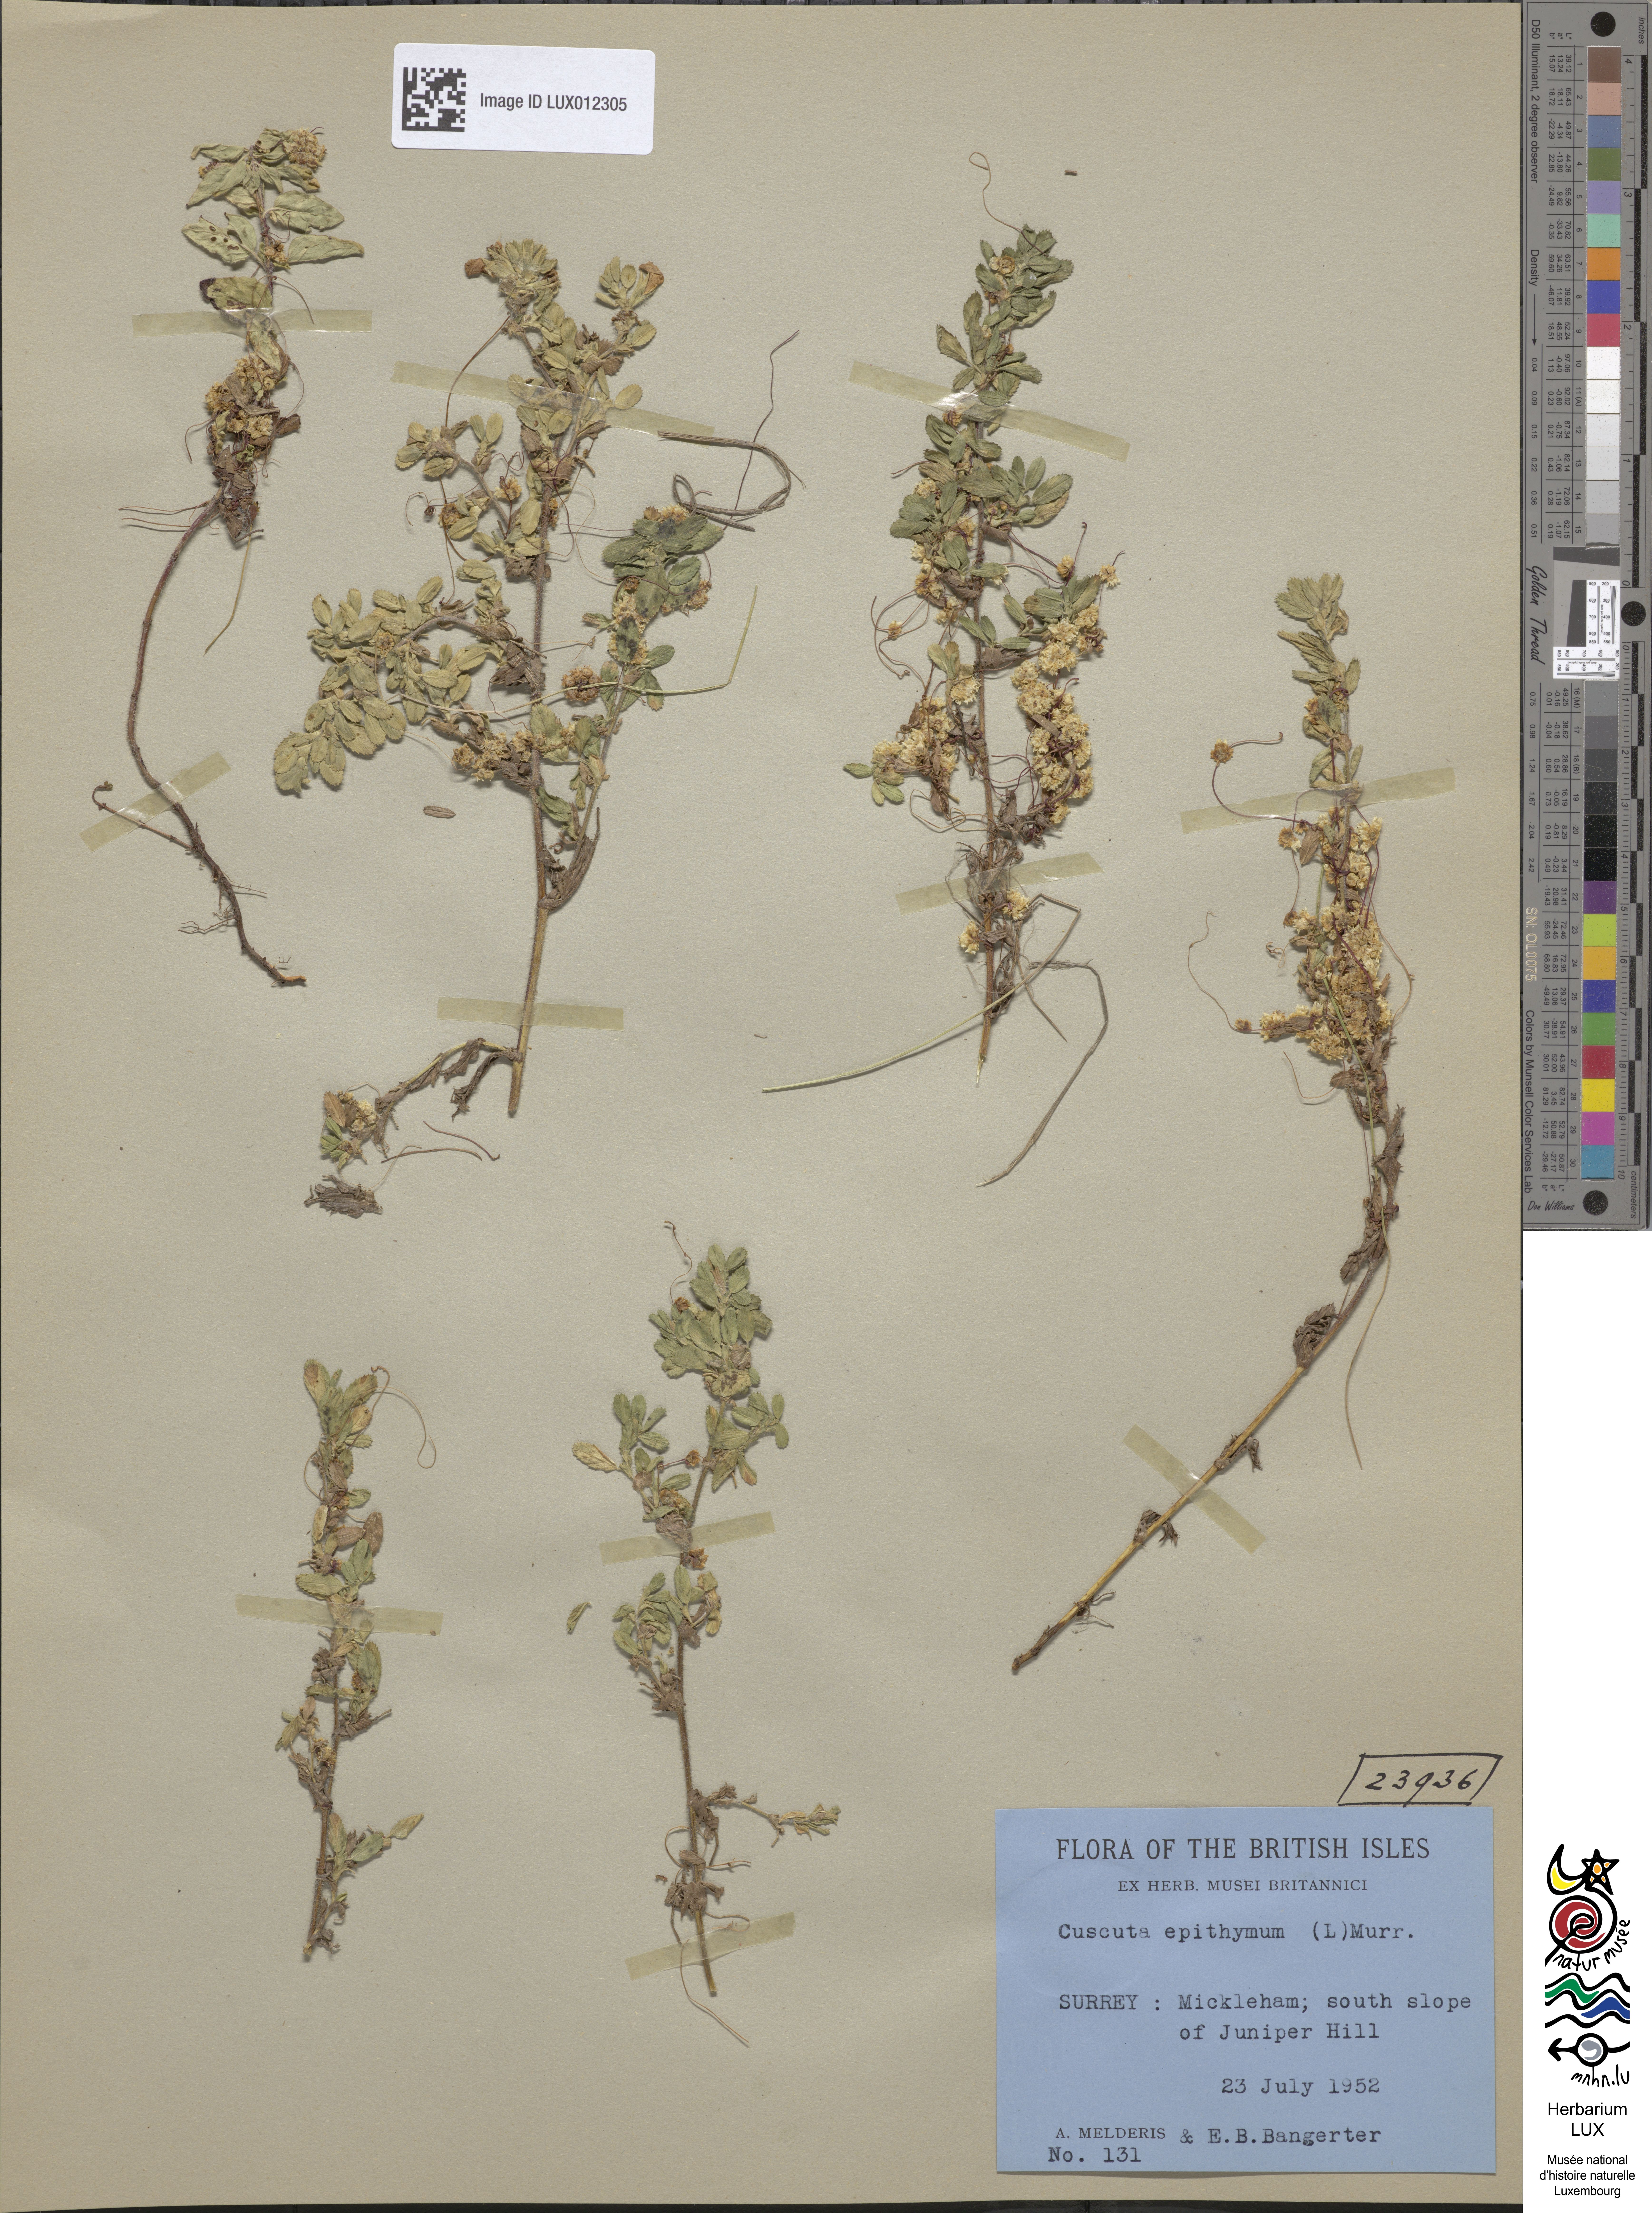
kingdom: Plantae
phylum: Tracheophyta
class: Magnoliopsida
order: Solanales
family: Convolvulaceae
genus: Cuscuta
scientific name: Cuscuta epithymum
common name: Clover dodder
